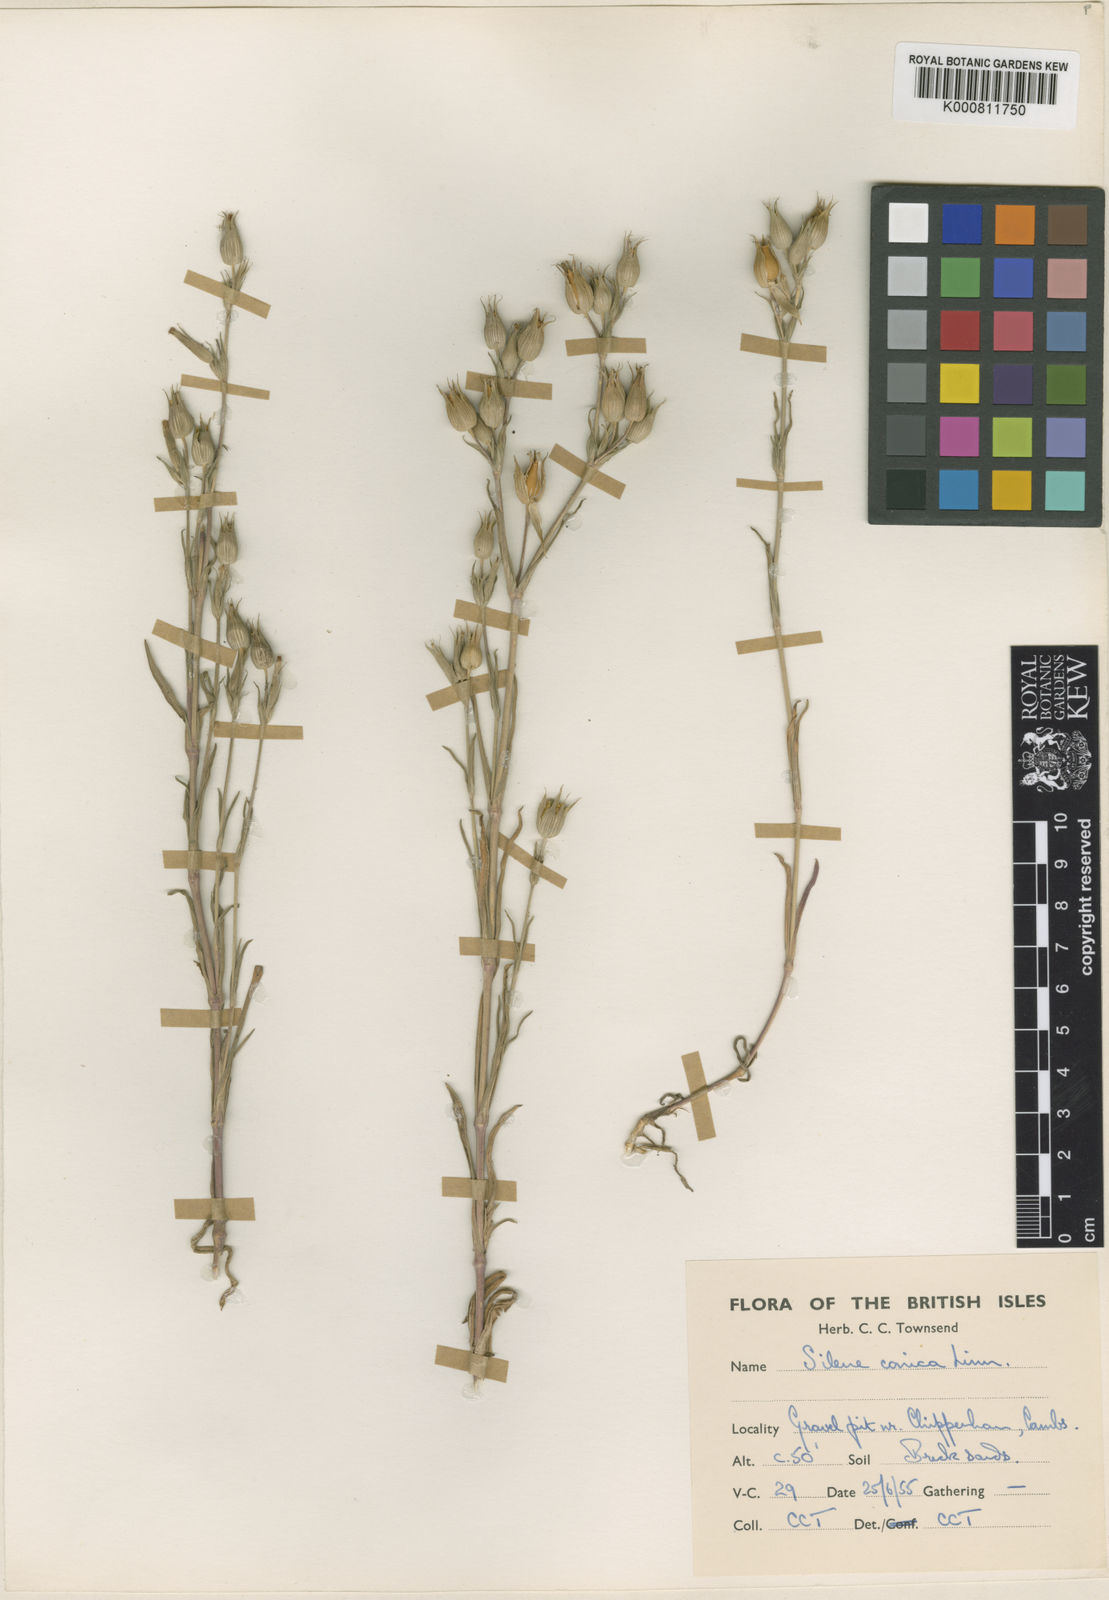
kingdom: Plantae
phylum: Tracheophyta
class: Magnoliopsida
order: Caryophyllales
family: Caryophyllaceae
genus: Silene
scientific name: Silene conica
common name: Sand catchfly
